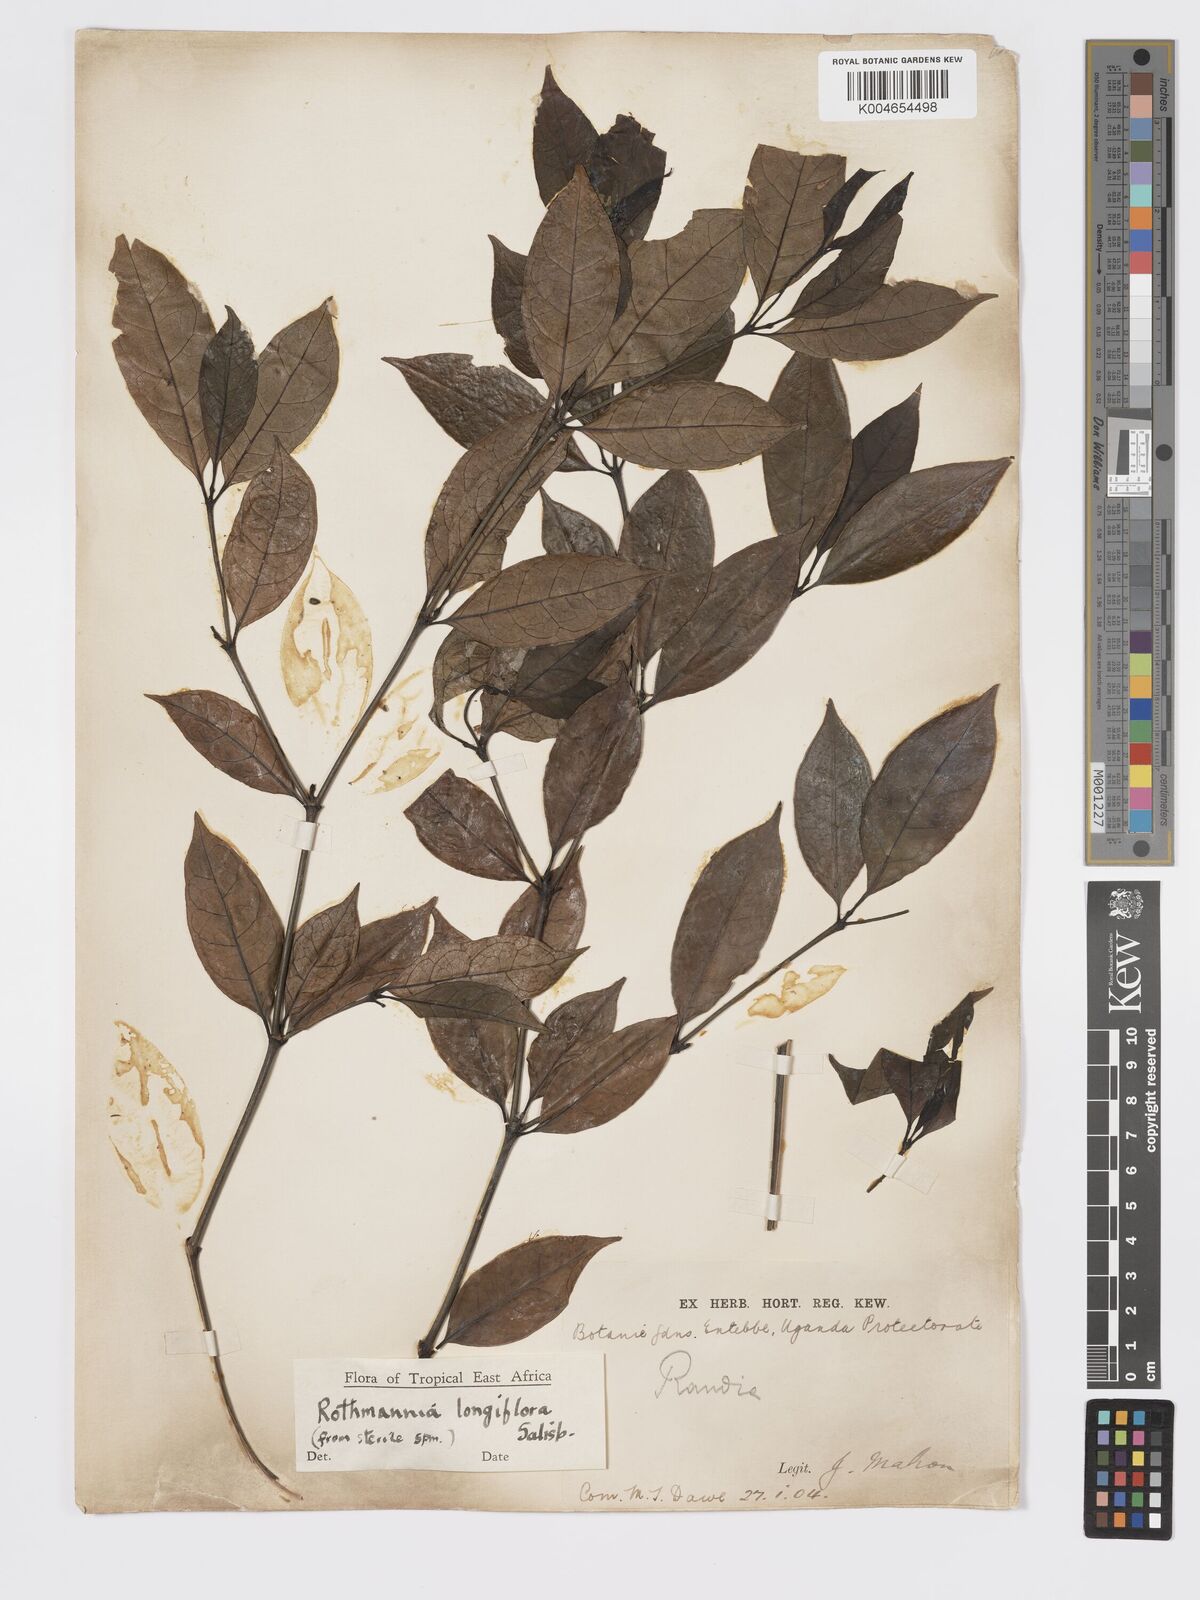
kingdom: Plantae
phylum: Tracheophyta
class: Magnoliopsida
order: Gentianales
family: Rubiaceae
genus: Rothmannia
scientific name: Rothmannia longiflora
